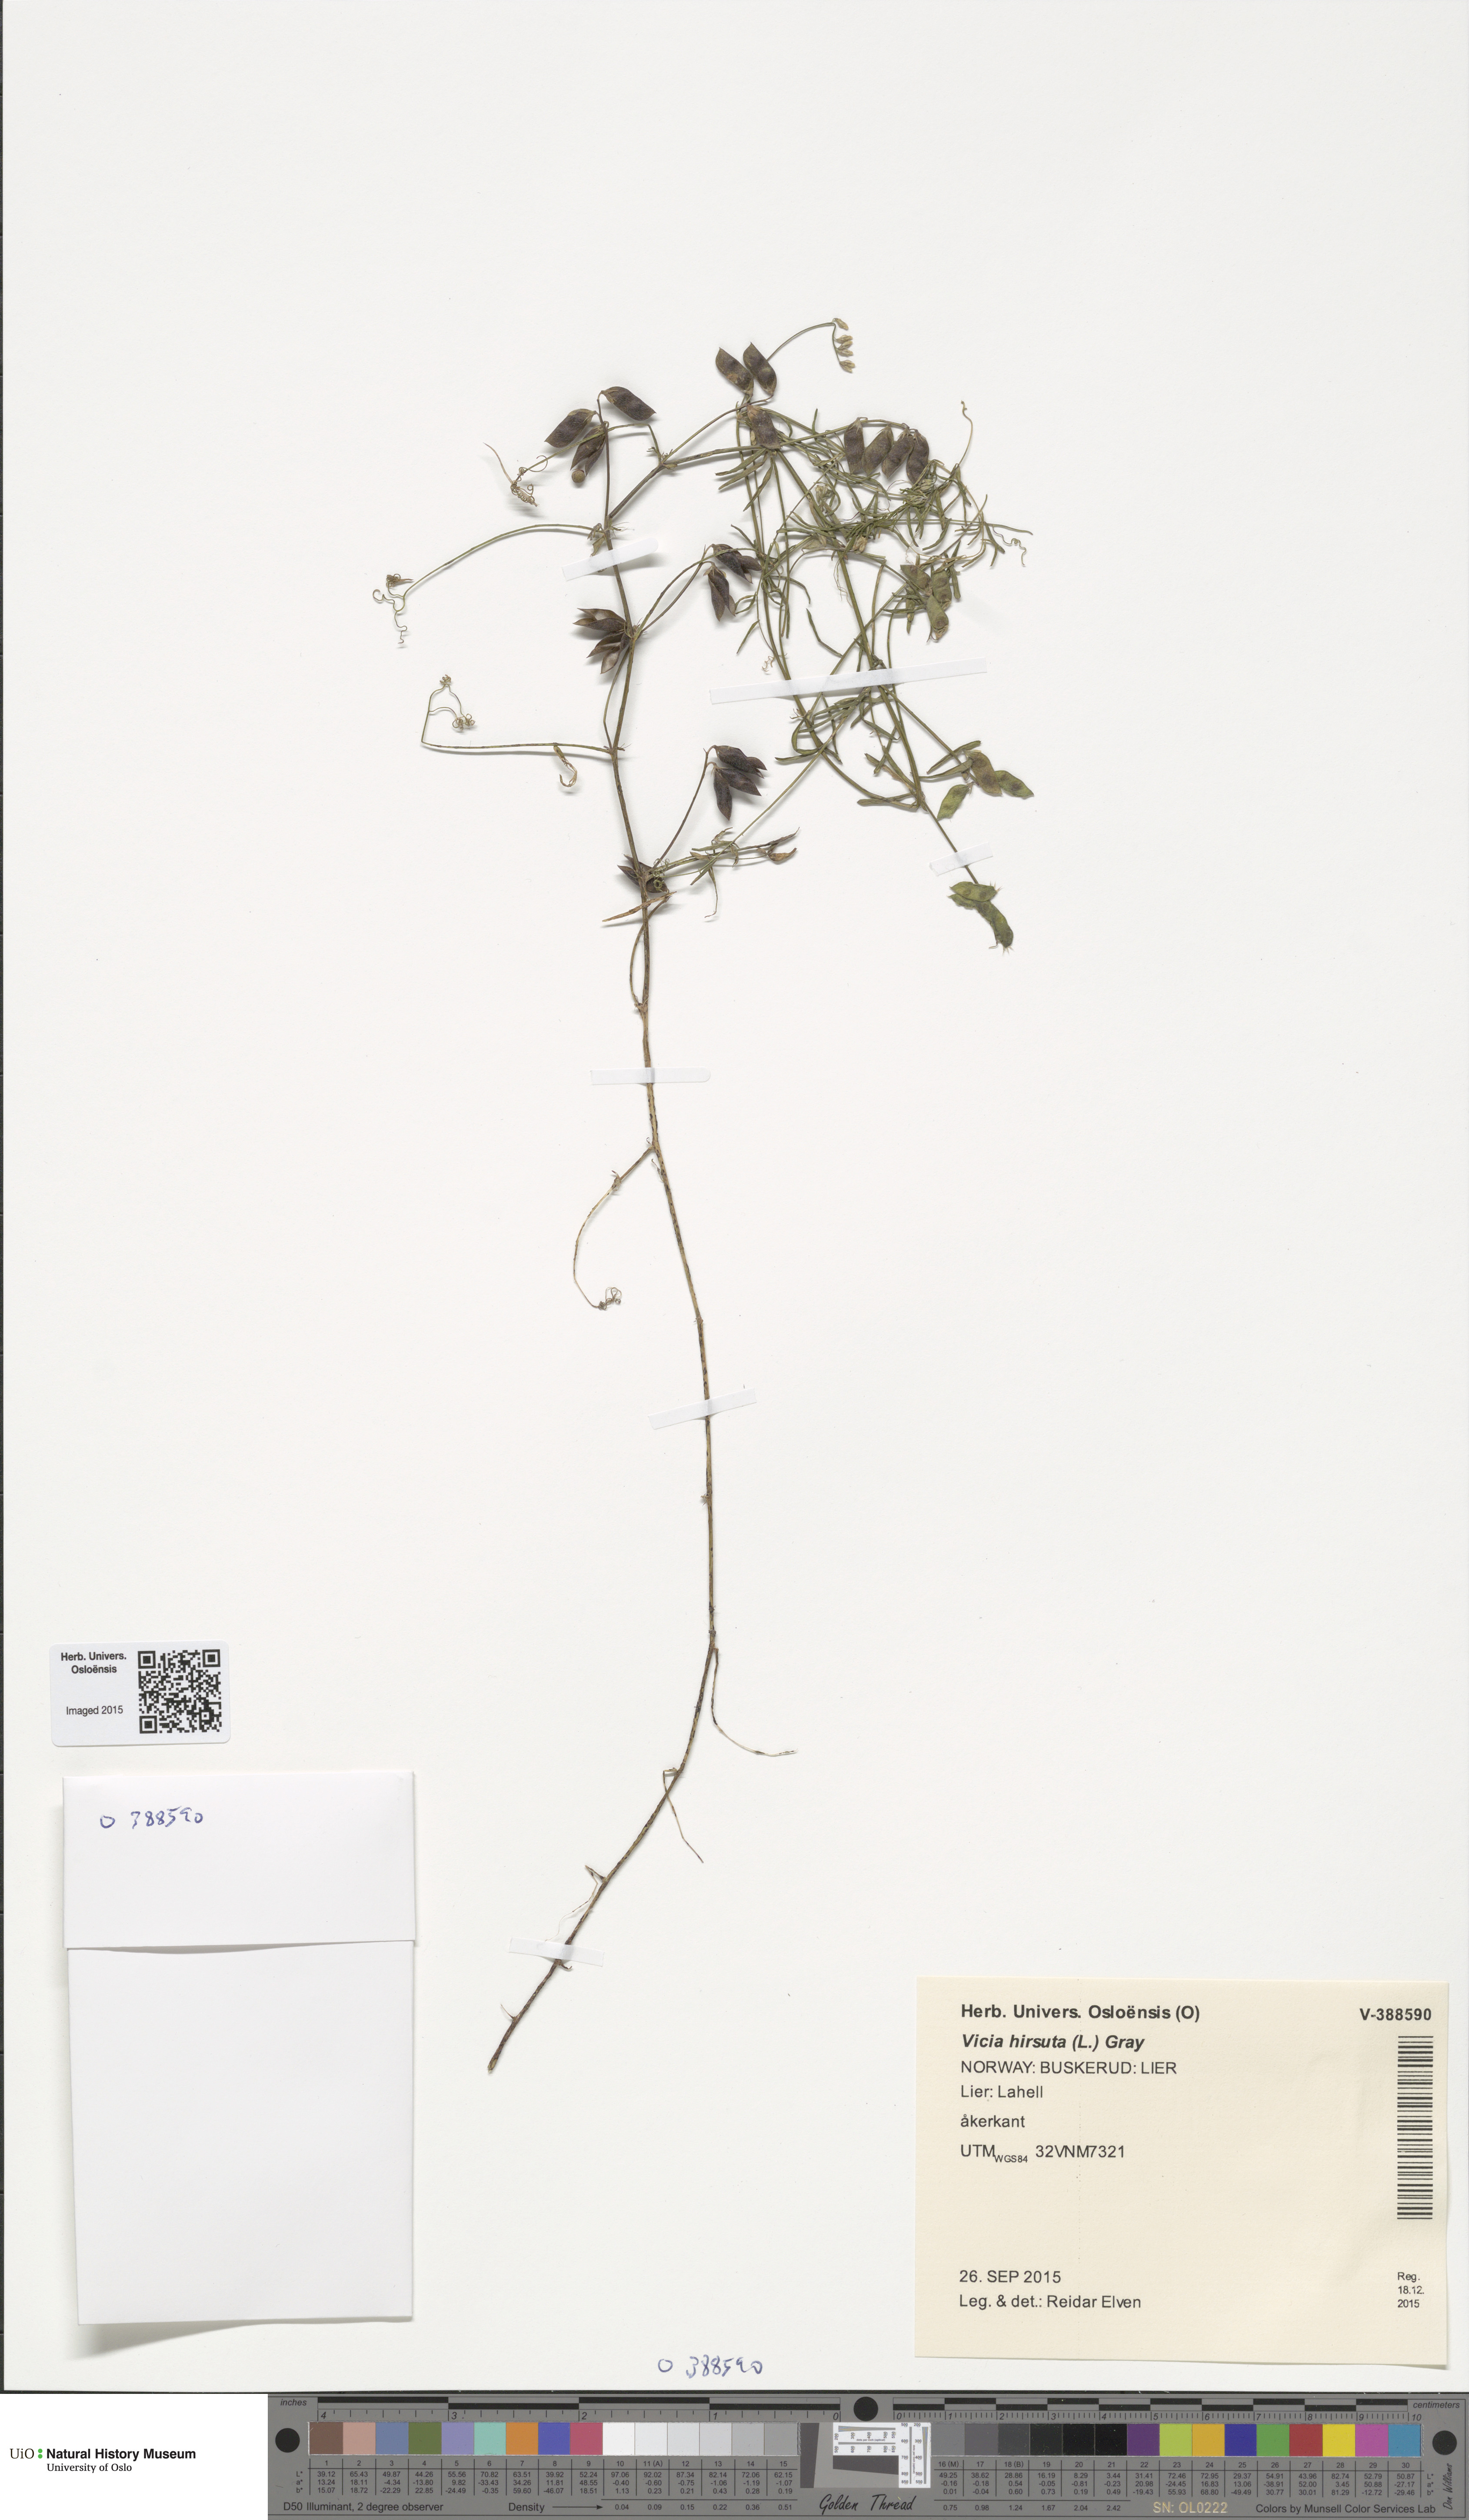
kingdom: Plantae
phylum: Tracheophyta
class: Magnoliopsida
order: Fabales
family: Fabaceae
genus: Vicia
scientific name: Vicia hirsuta
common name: Tiny vetch
